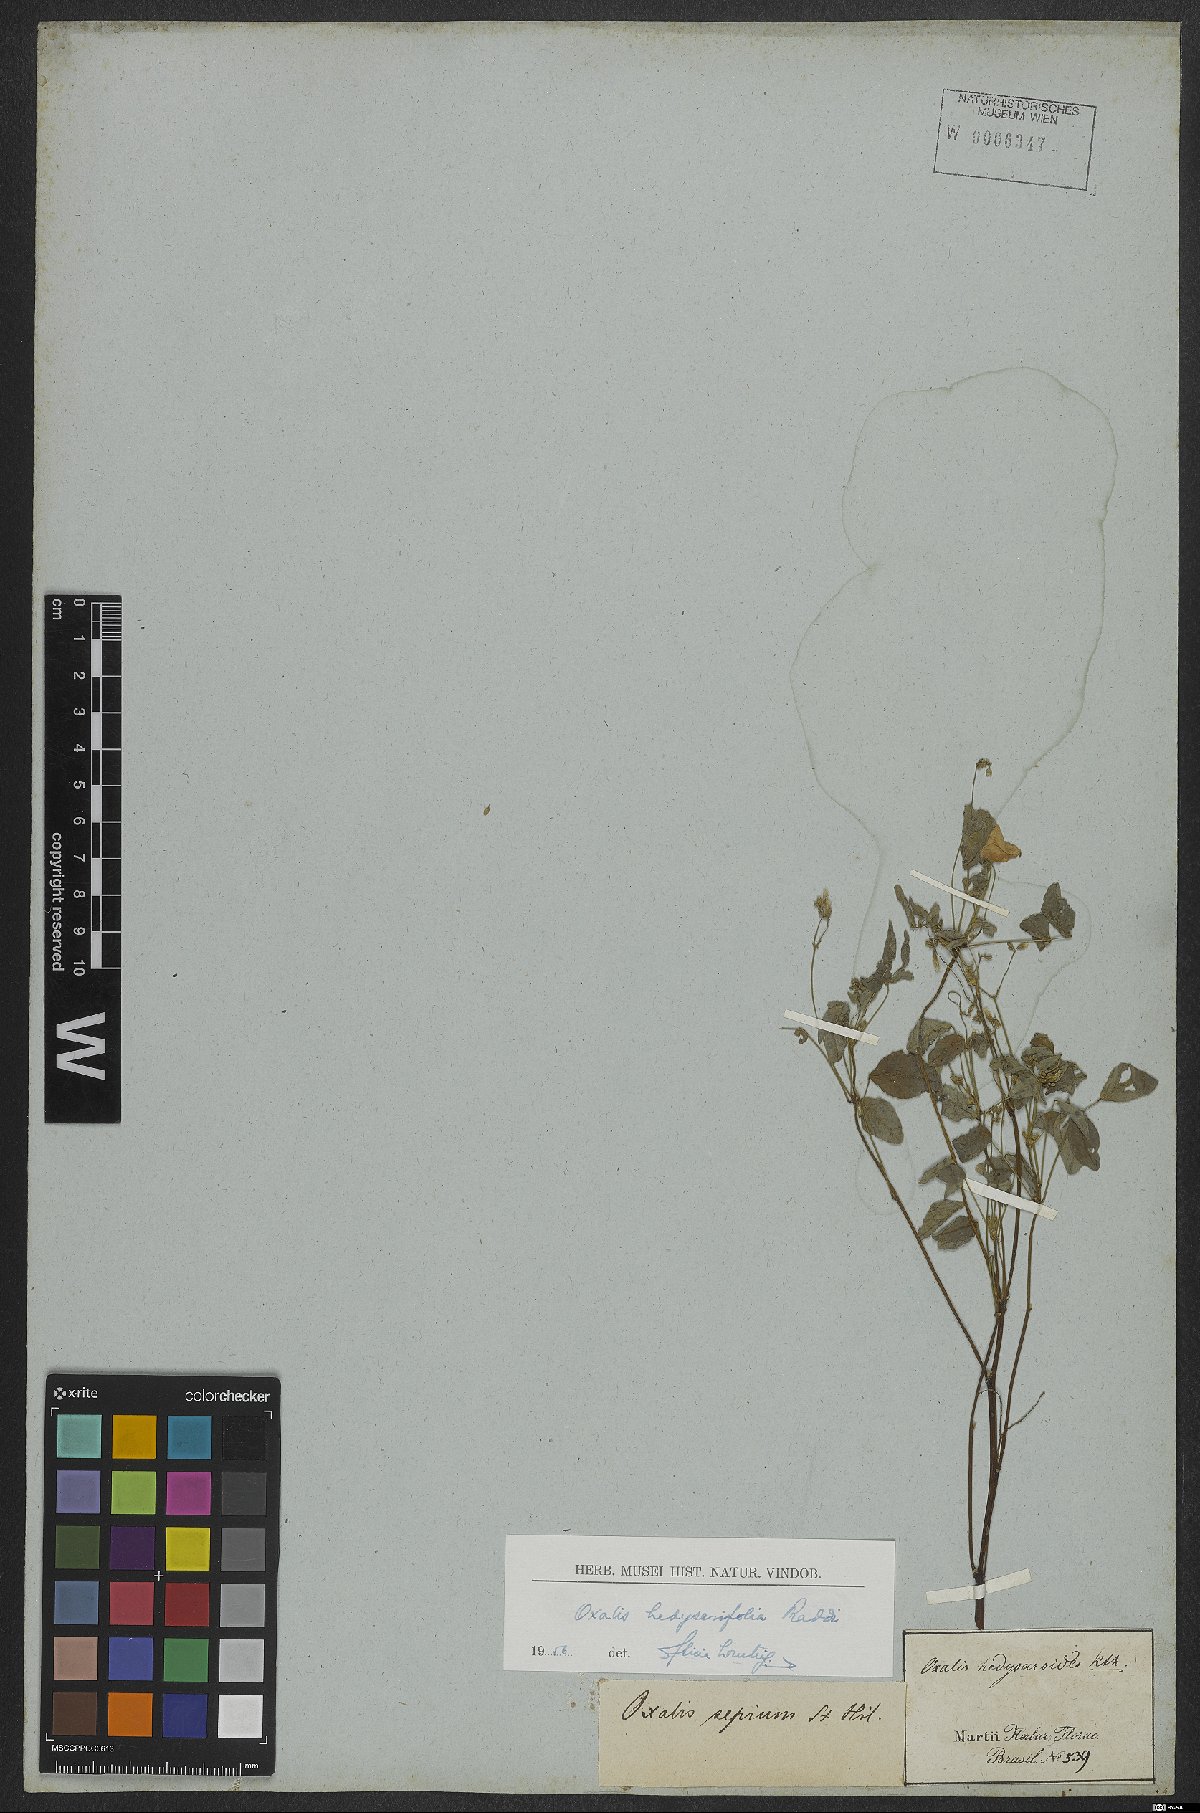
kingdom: Plantae
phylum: Tracheophyta
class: Magnoliopsida
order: Oxalidales
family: Oxalidaceae
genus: Oxalis
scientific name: Oxalis frutescens
